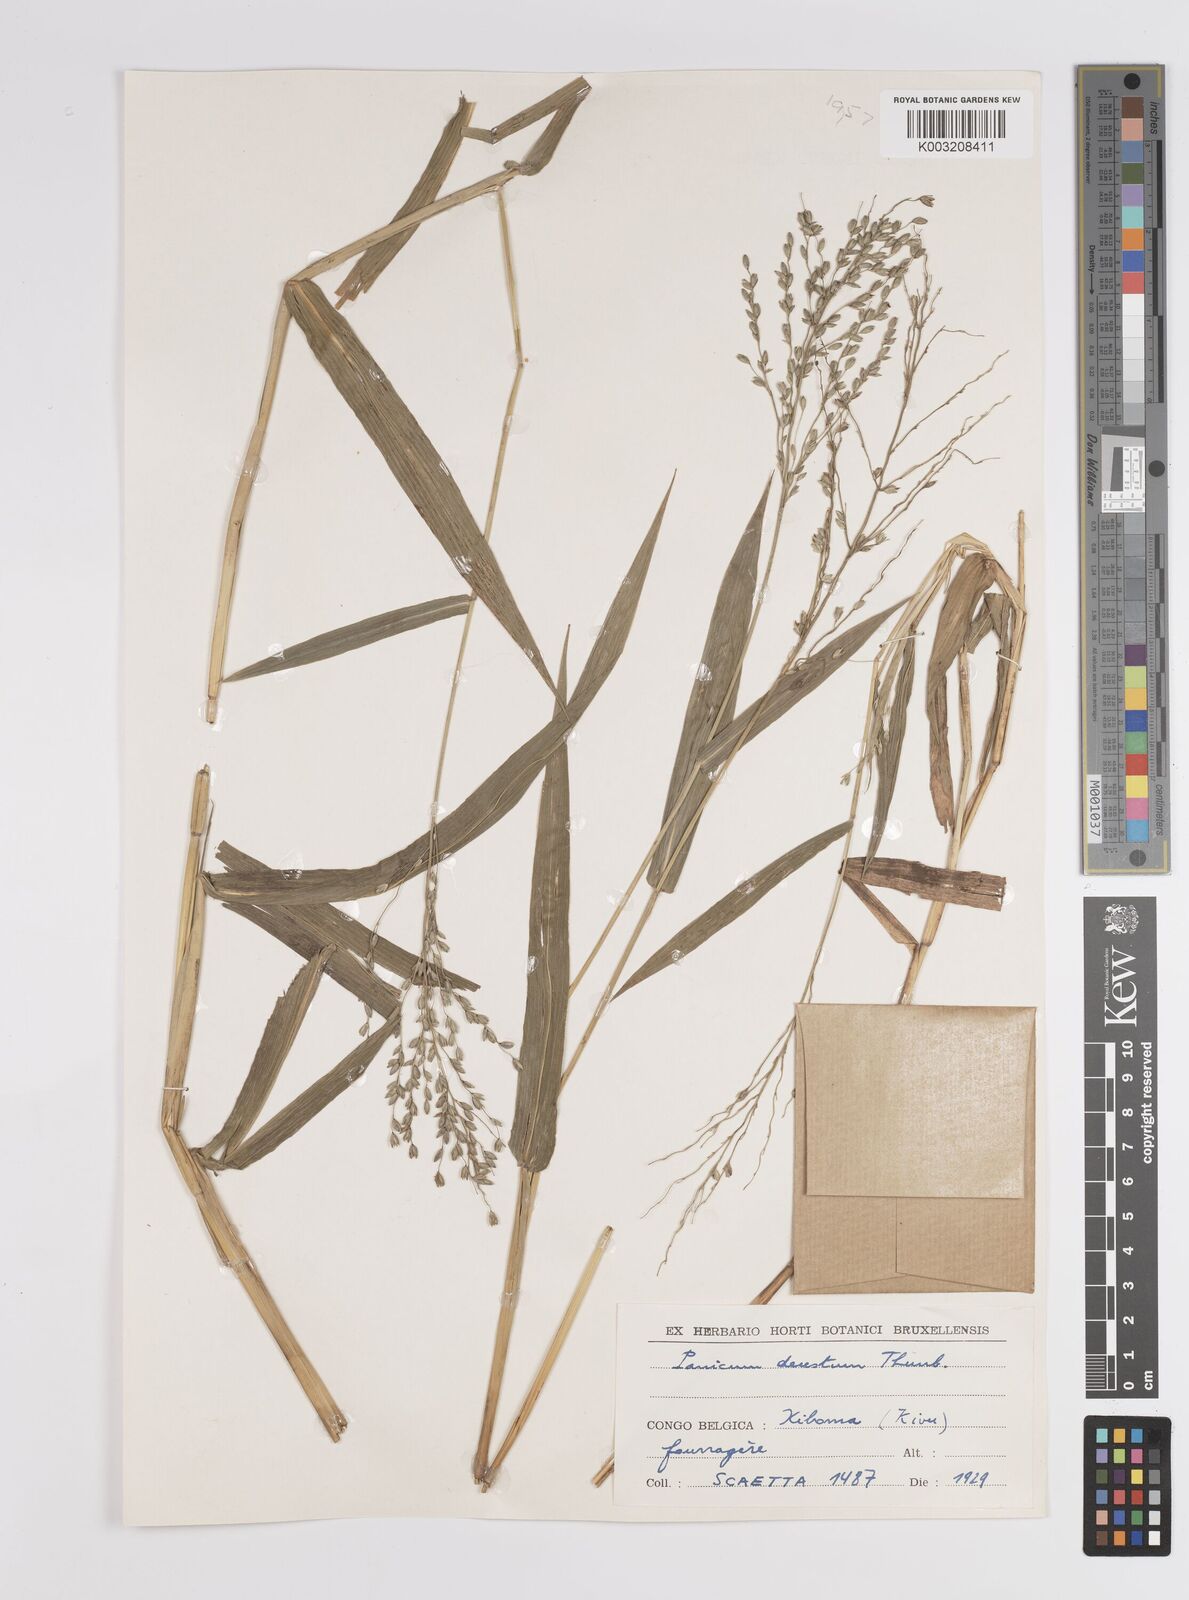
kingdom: Plantae
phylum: Tracheophyta
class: Liliopsida
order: Poales
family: Poaceae
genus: Panicum
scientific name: Panicum deustum
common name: Reed panicum
